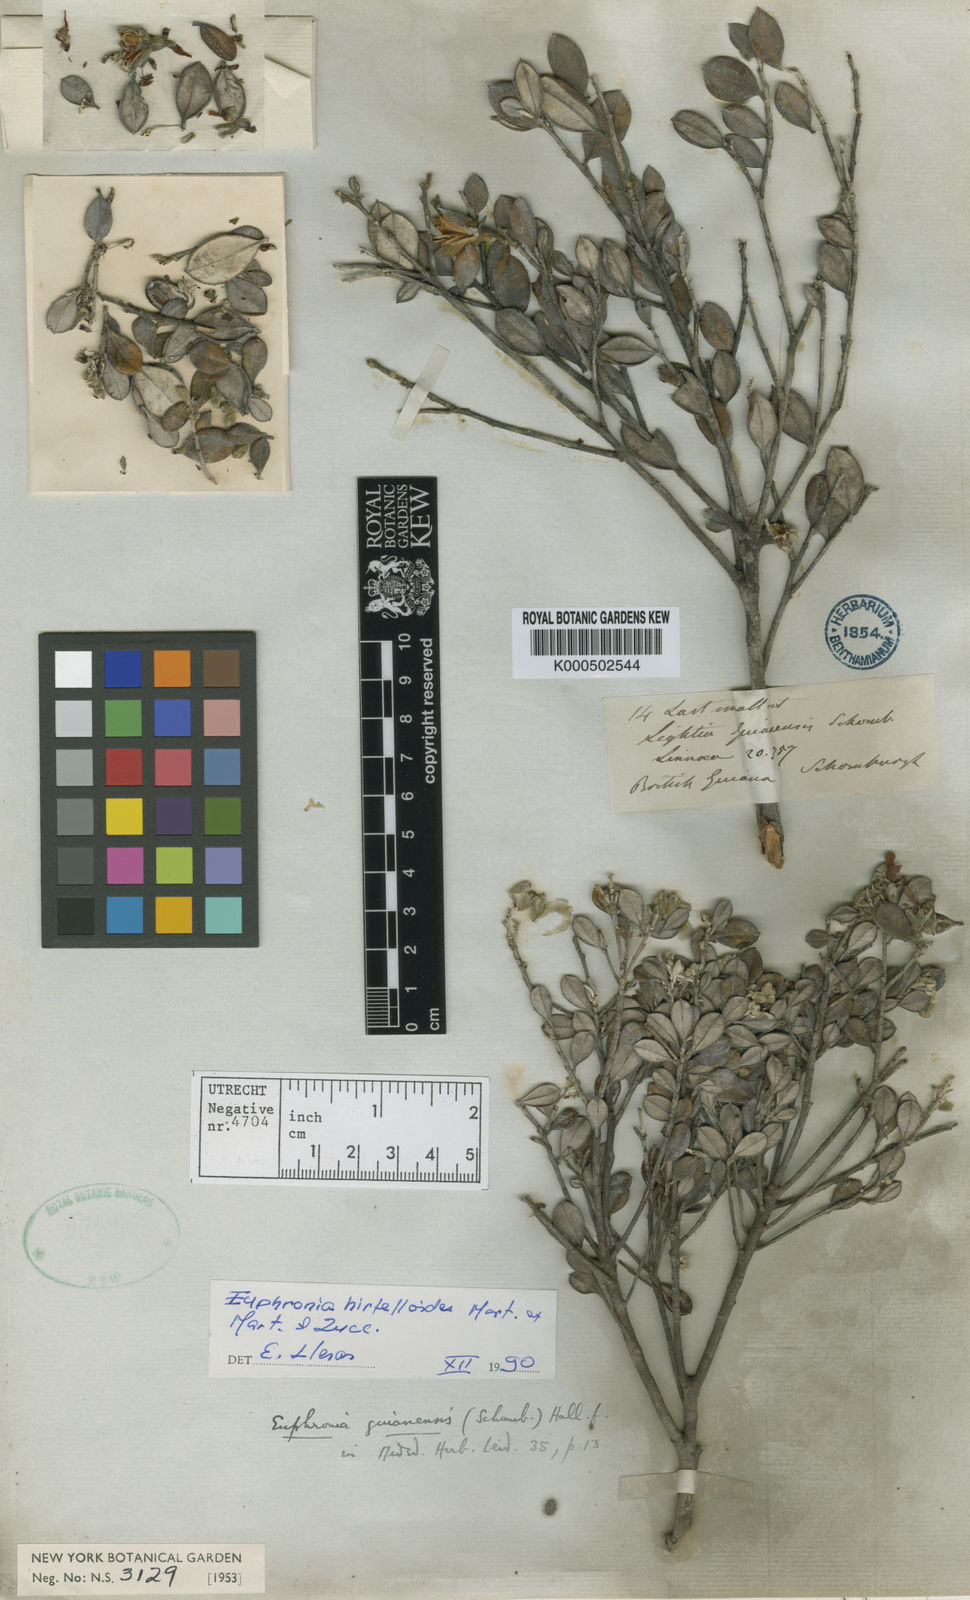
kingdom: Plantae
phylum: Tracheophyta
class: Magnoliopsida
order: Malpighiales
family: Euphroniaceae
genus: Euphronia
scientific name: Euphronia hirtelloides
